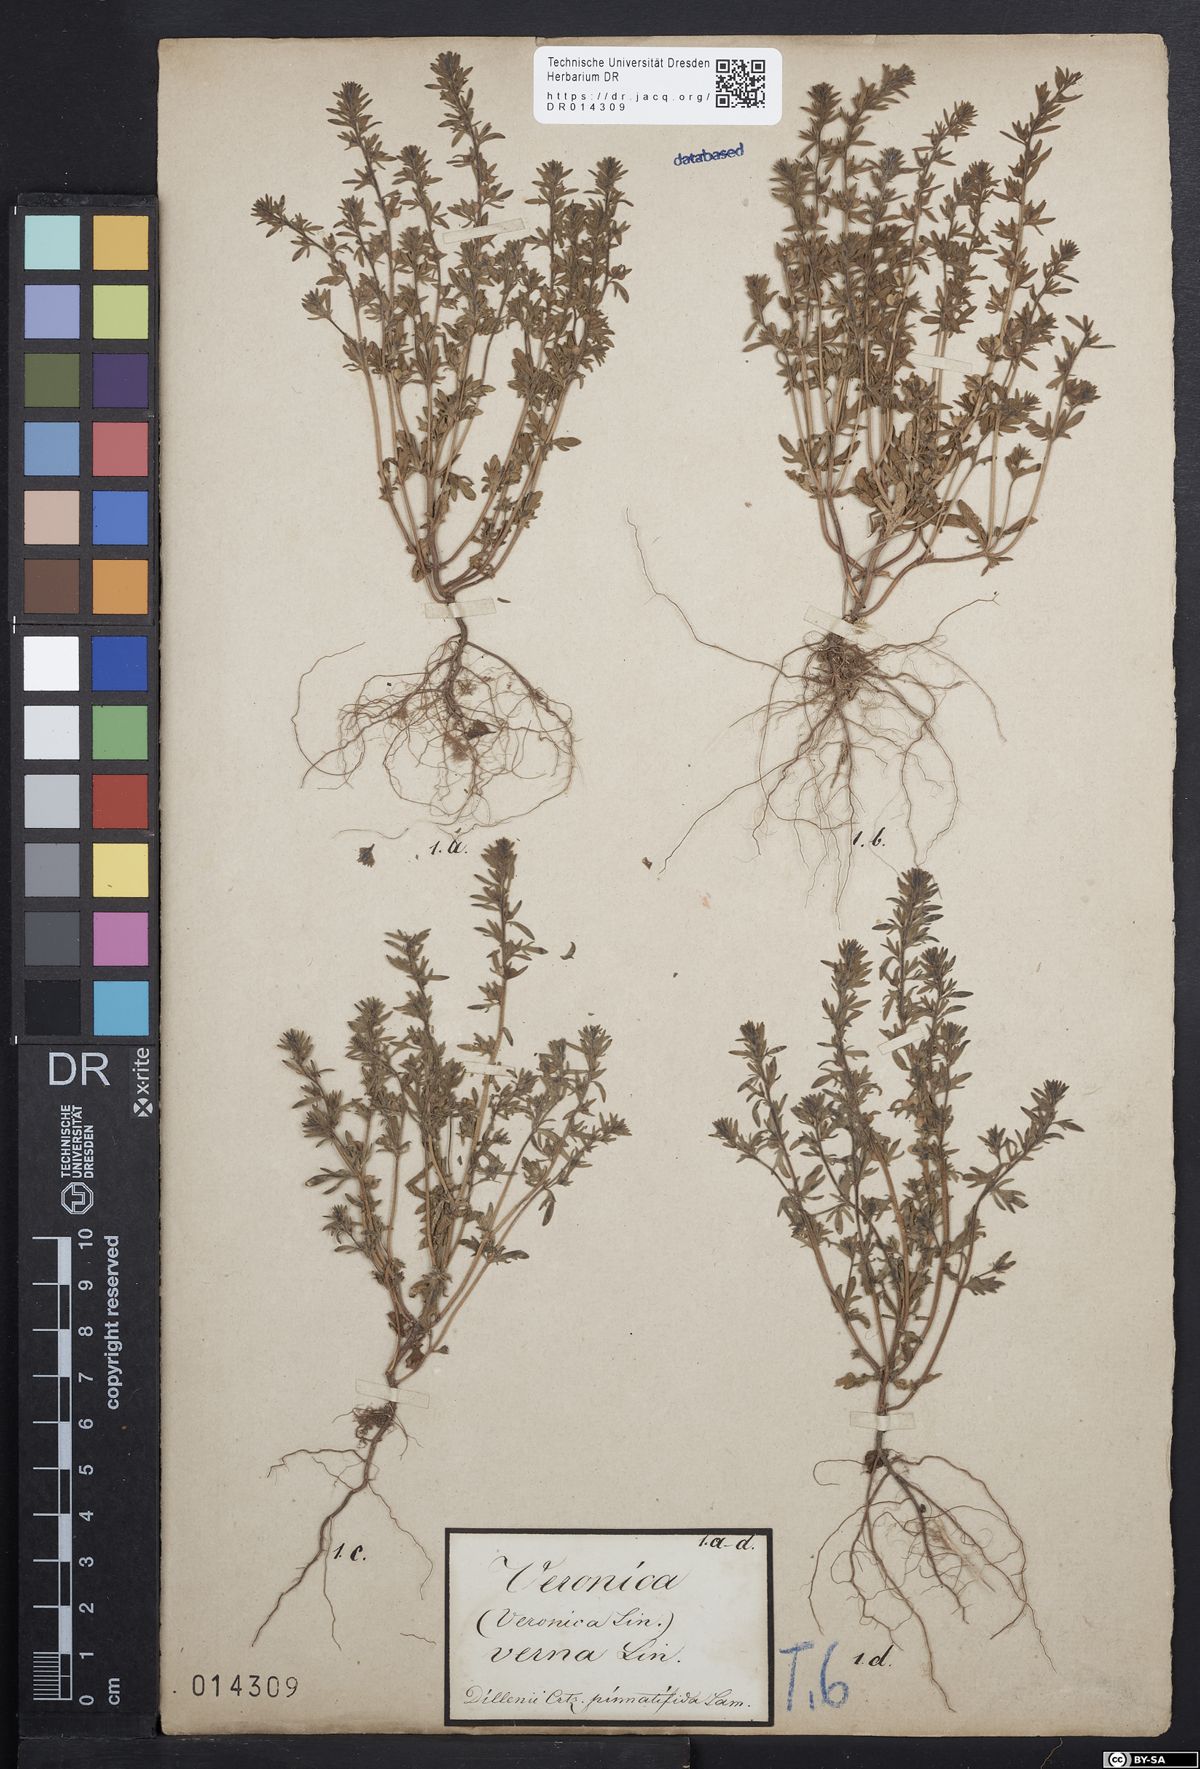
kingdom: Plantae
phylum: Tracheophyta
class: Magnoliopsida
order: Lamiales
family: Plantaginaceae
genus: Veronica
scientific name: Veronica verna
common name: Spring speedwell
